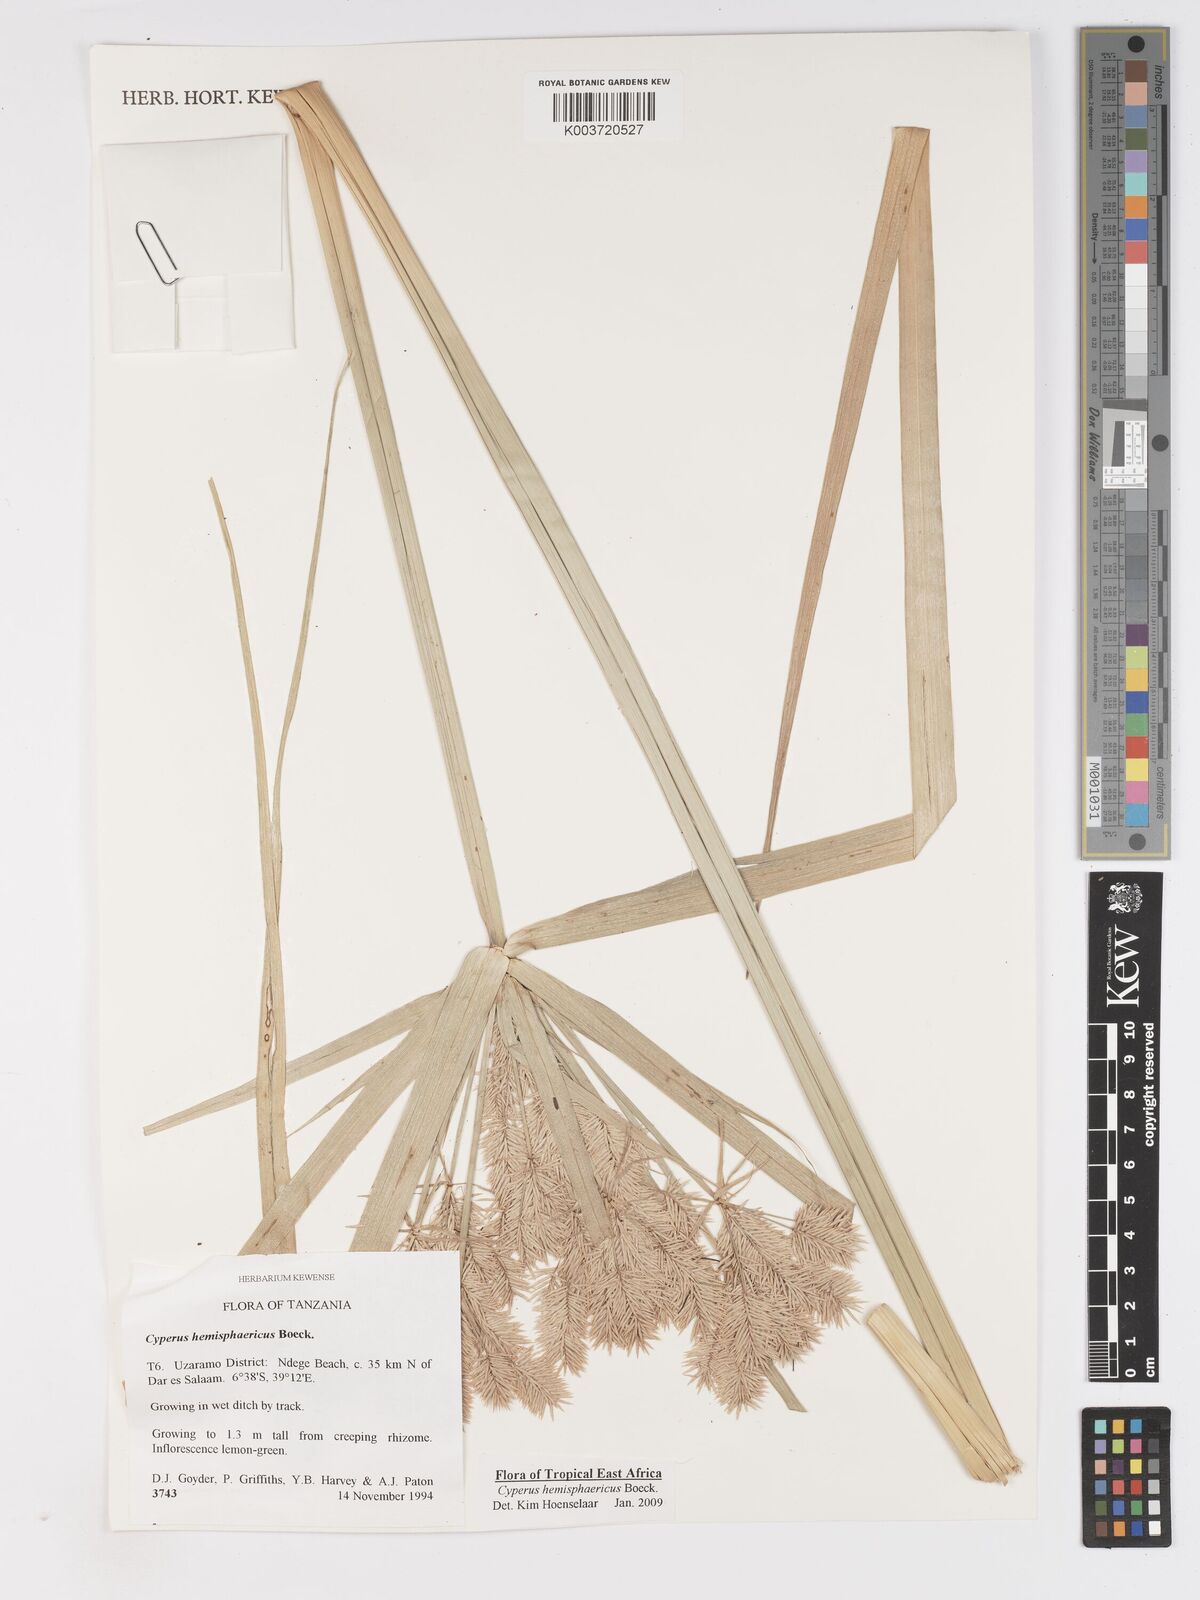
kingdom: Plantae
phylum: Tracheophyta
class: Liliopsida
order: Poales
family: Cyperaceae
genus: Cyperus
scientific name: Cyperus hemisphaericus
